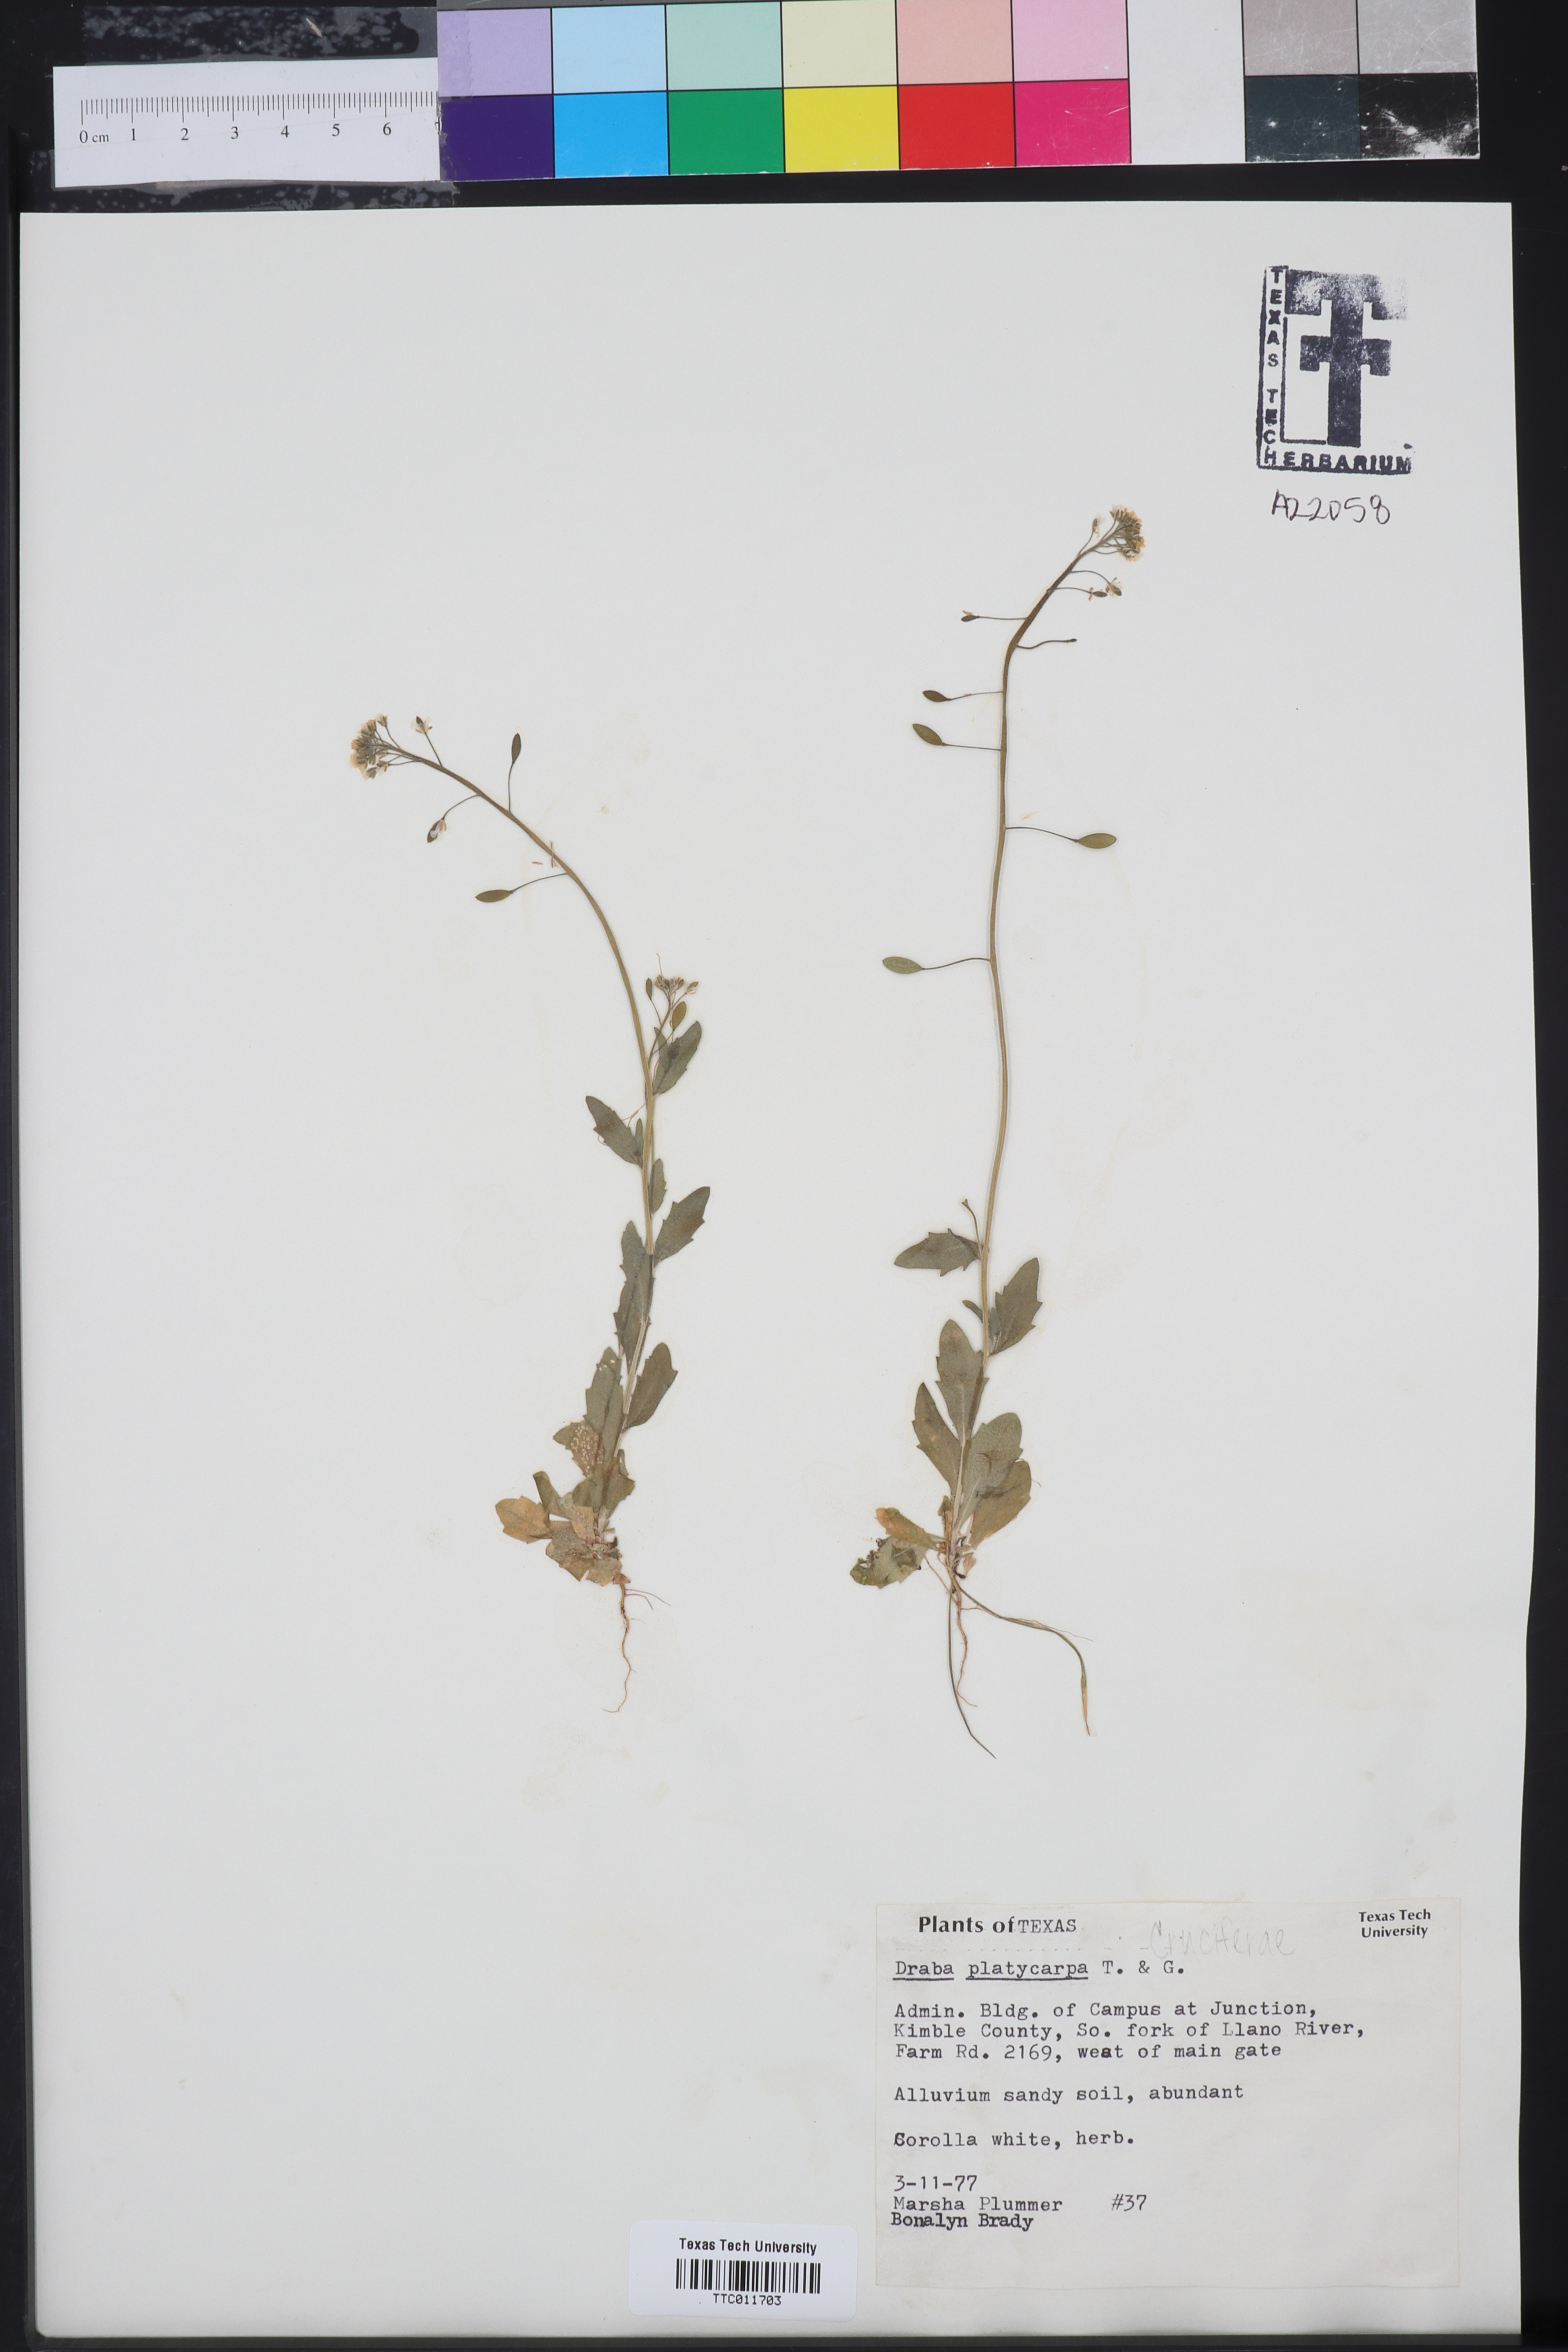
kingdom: Plantae
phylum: Tracheophyta
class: Magnoliopsida
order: Brassicales
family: Brassicaceae
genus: Tomostima
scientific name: Tomostima platycarpa
